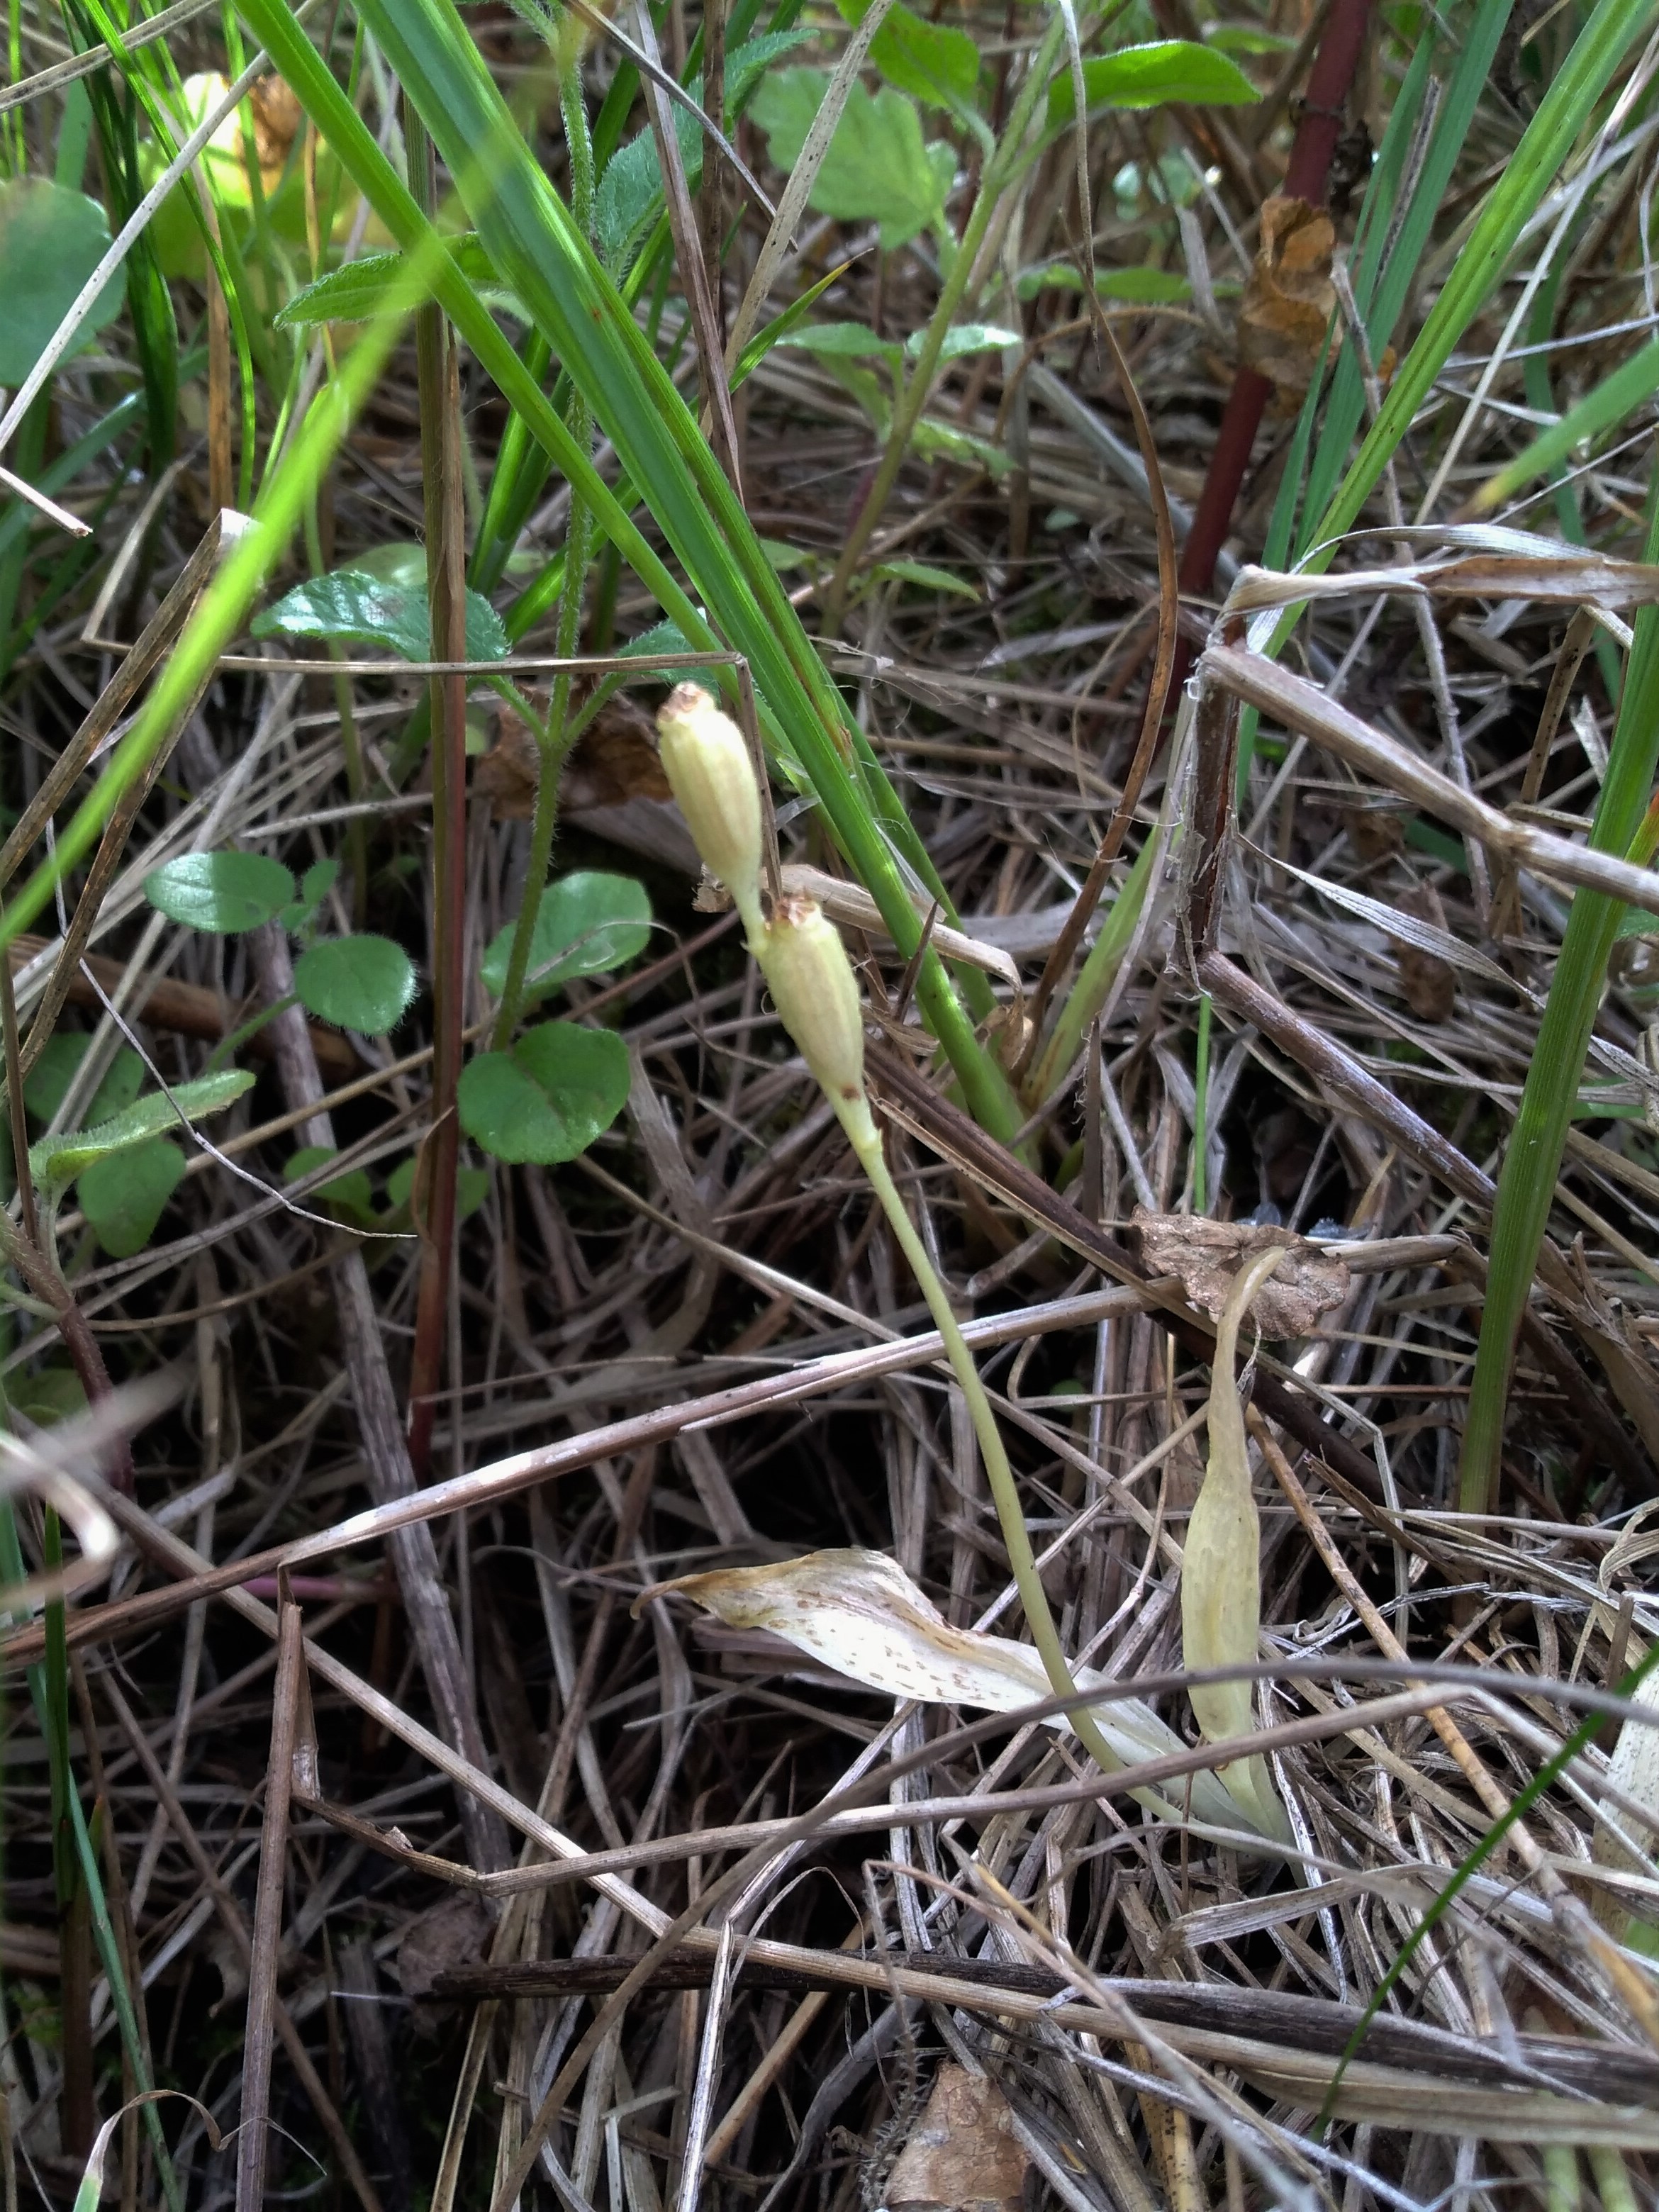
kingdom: Animalia
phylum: Arthropoda
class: Insecta
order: Coleoptera
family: Curculionidae
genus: Liparis
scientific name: Liparis loeselii
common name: Mygblomst
